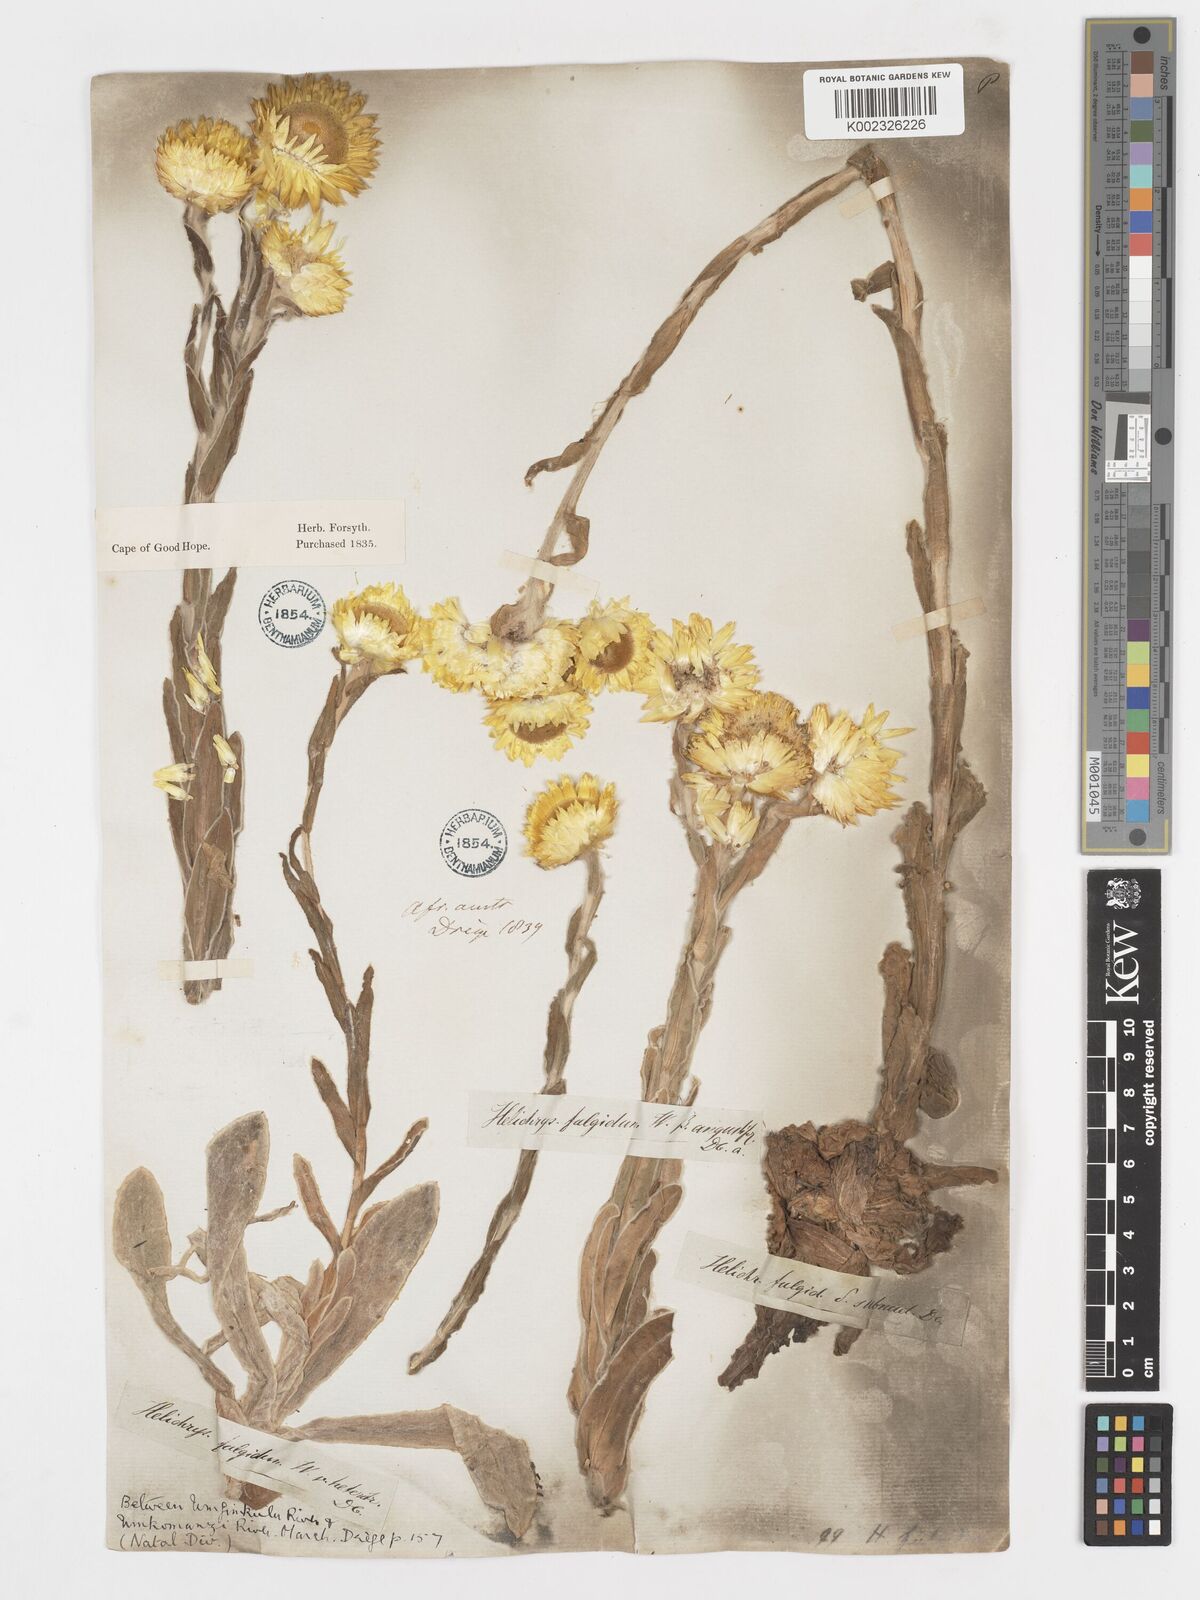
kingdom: Plantae
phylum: Tracheophyta
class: Magnoliopsida
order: Asterales
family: Asteraceae
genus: Helichrysum
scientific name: Helichrysum aureum
